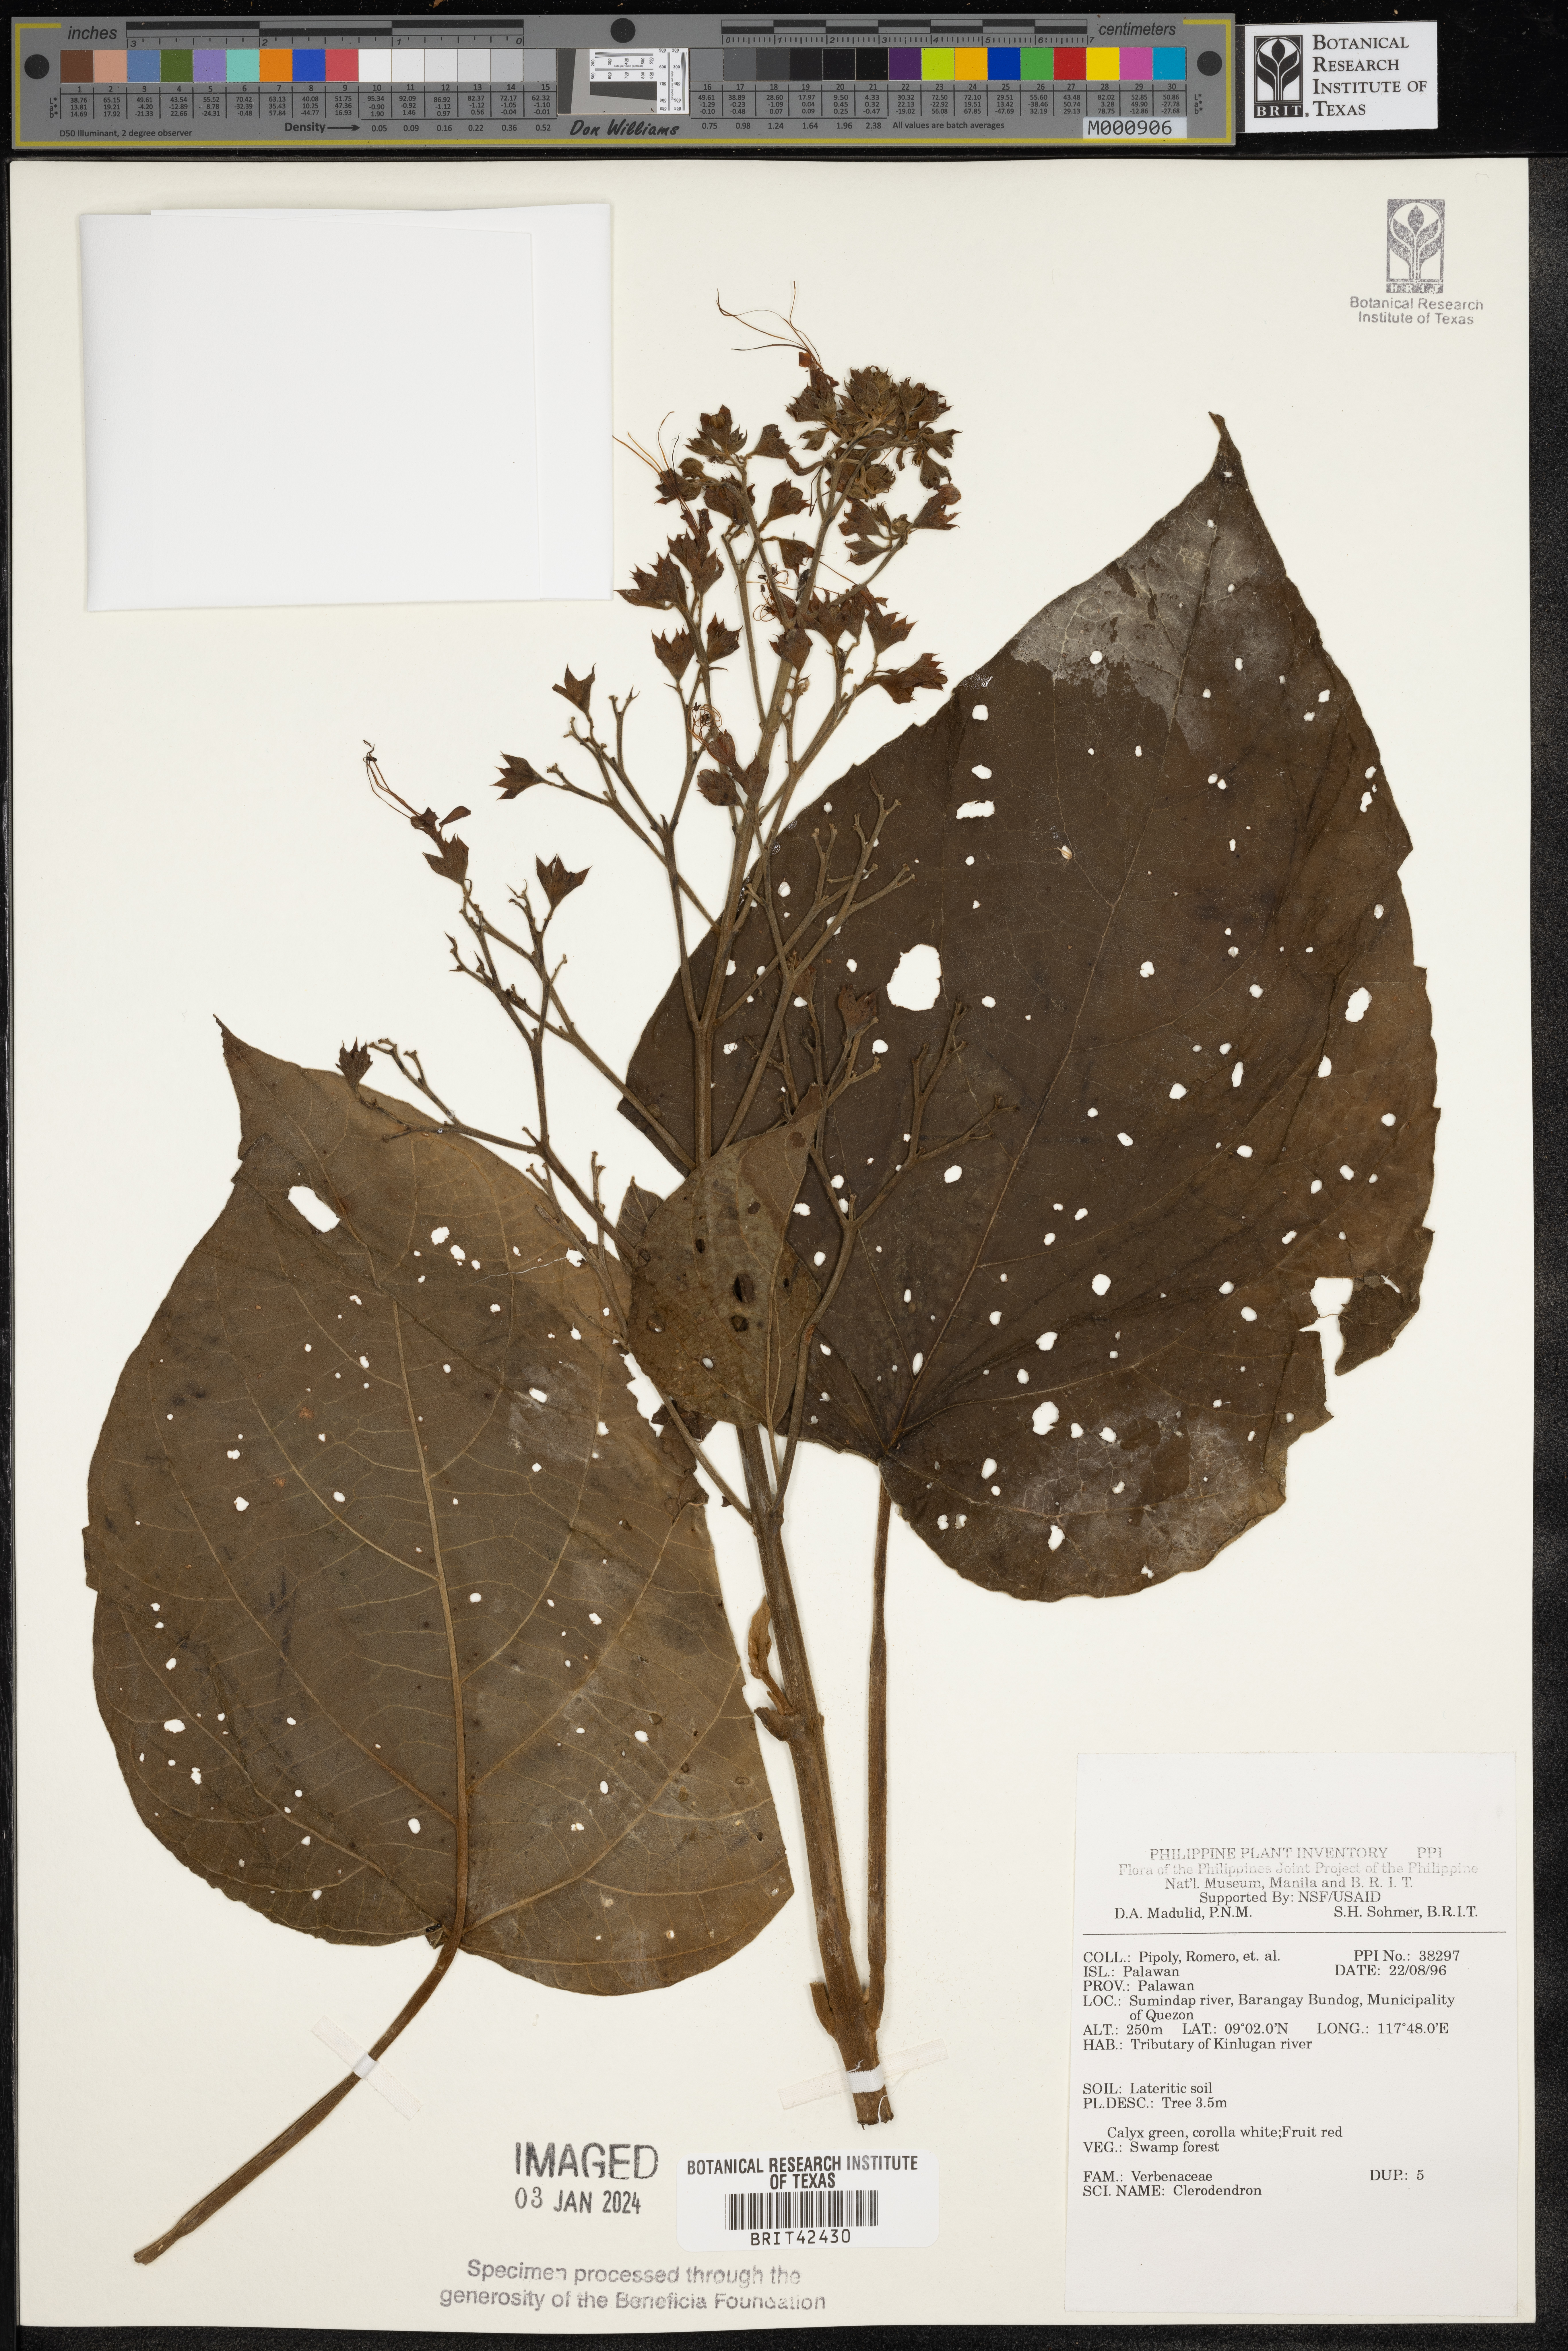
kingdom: Plantae
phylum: Tracheophyta
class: Magnoliopsida
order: Lamiales
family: Lamiaceae
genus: Clerodendrum
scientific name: Clerodendrum
